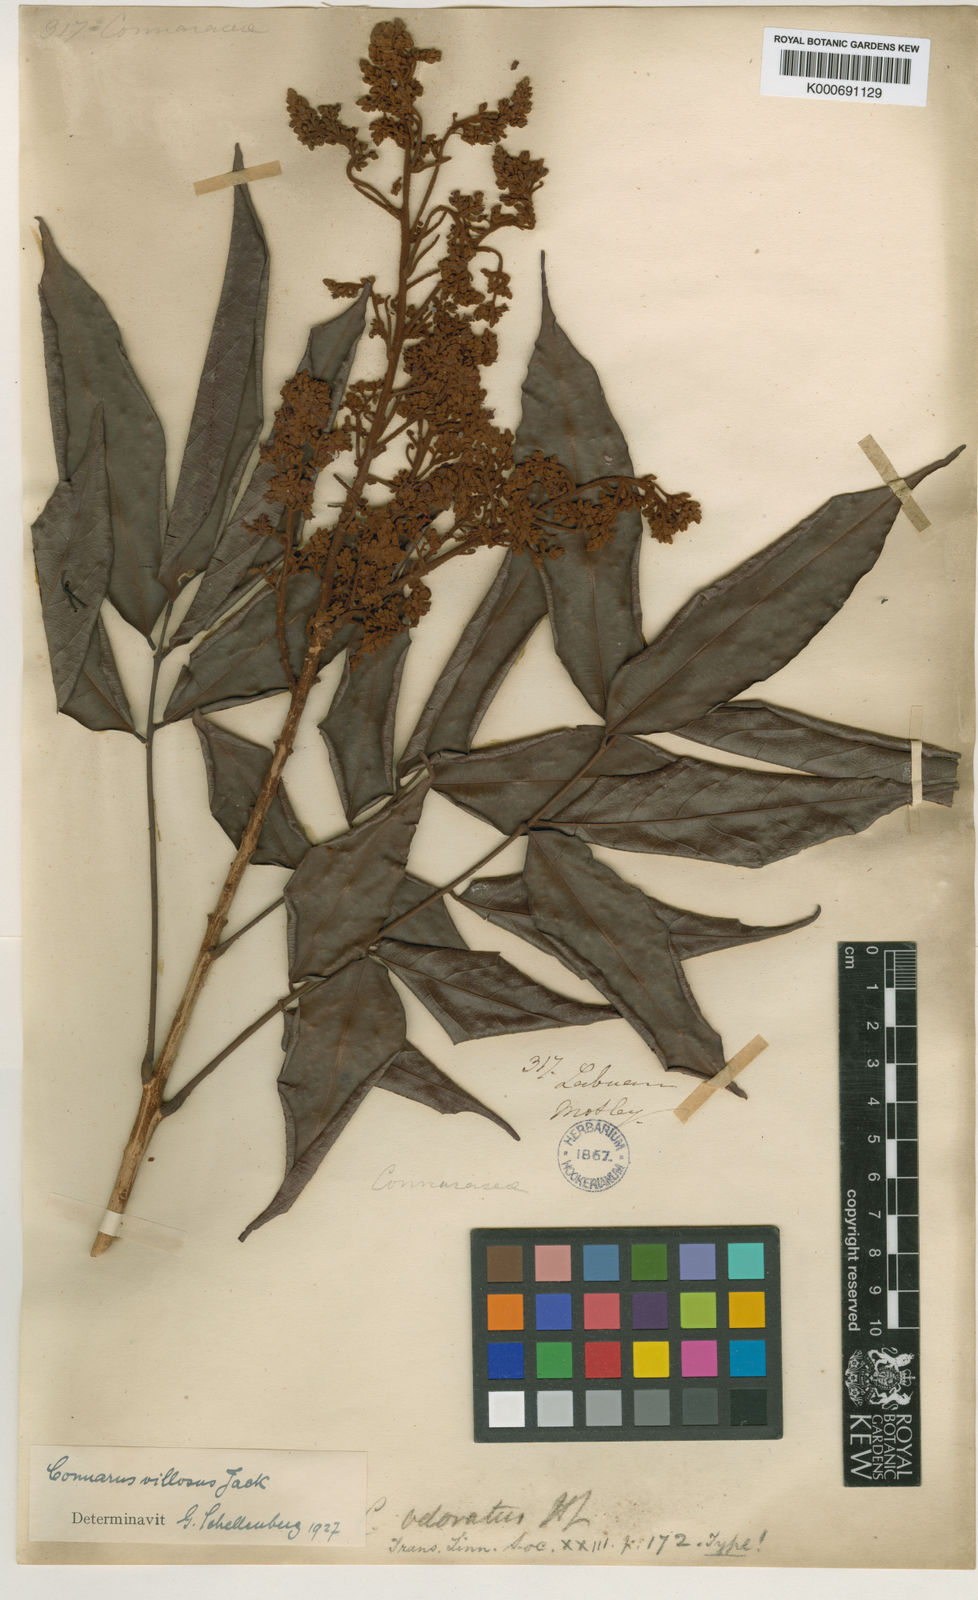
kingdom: Plantae
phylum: Tracheophyta
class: Magnoliopsida
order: Oxalidales
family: Connaraceae
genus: Connarus
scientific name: Connarus villosus
